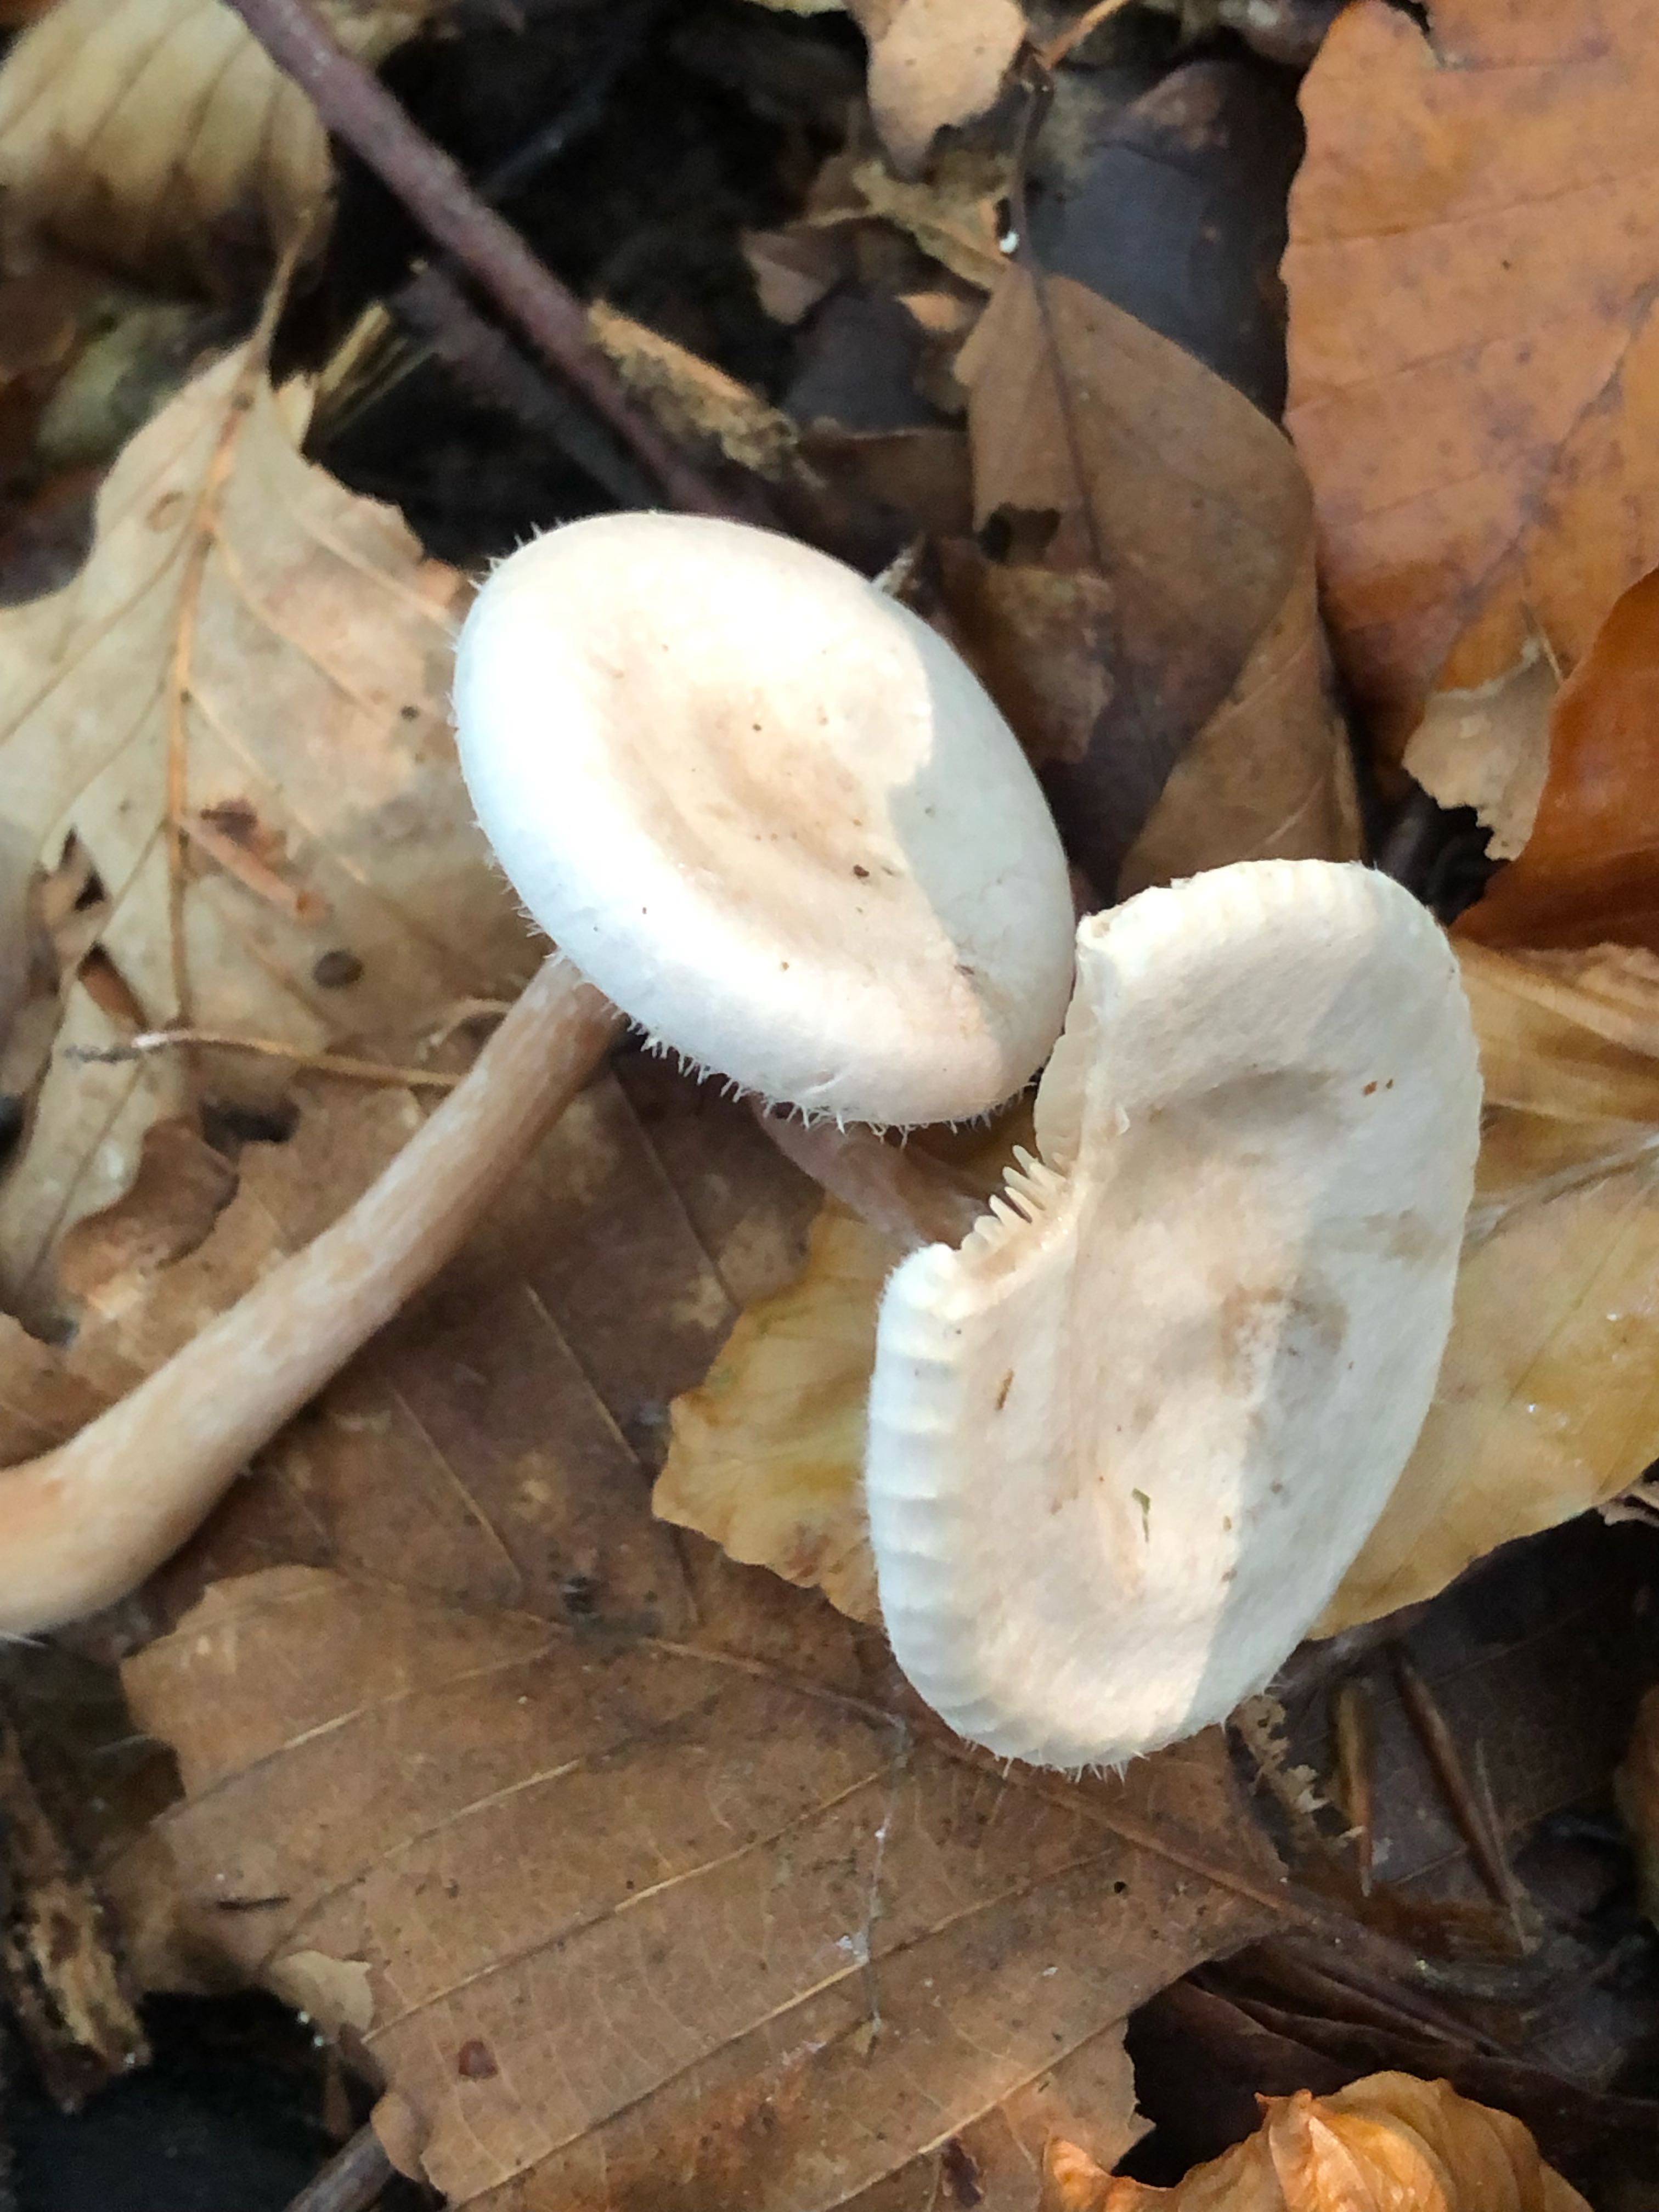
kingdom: Fungi
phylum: Basidiomycota
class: Agaricomycetes
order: Agaricales
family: Tricholomataceae
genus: Ripartites
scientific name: Ripartites tricholoma
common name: almindelig skæghat
